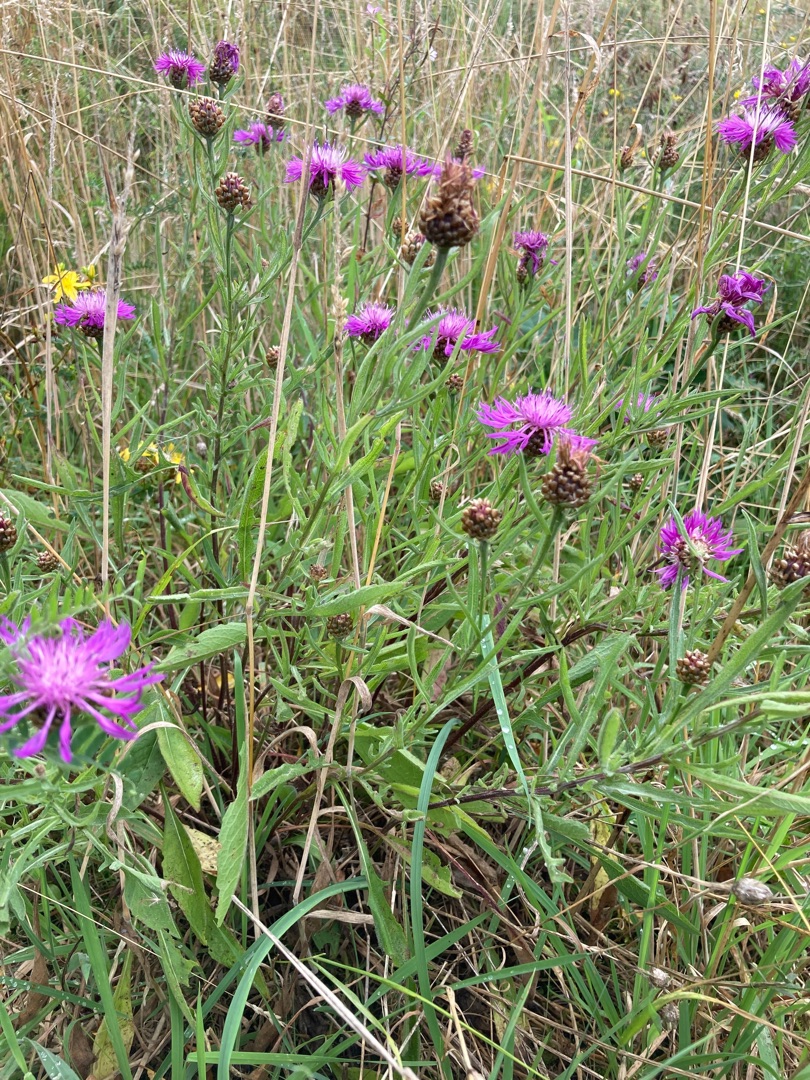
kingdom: Plantae
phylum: Tracheophyta
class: Magnoliopsida
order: Asterales
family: Asteraceae
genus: Centaurea
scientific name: Centaurea jacea
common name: Almindelig knopurt
